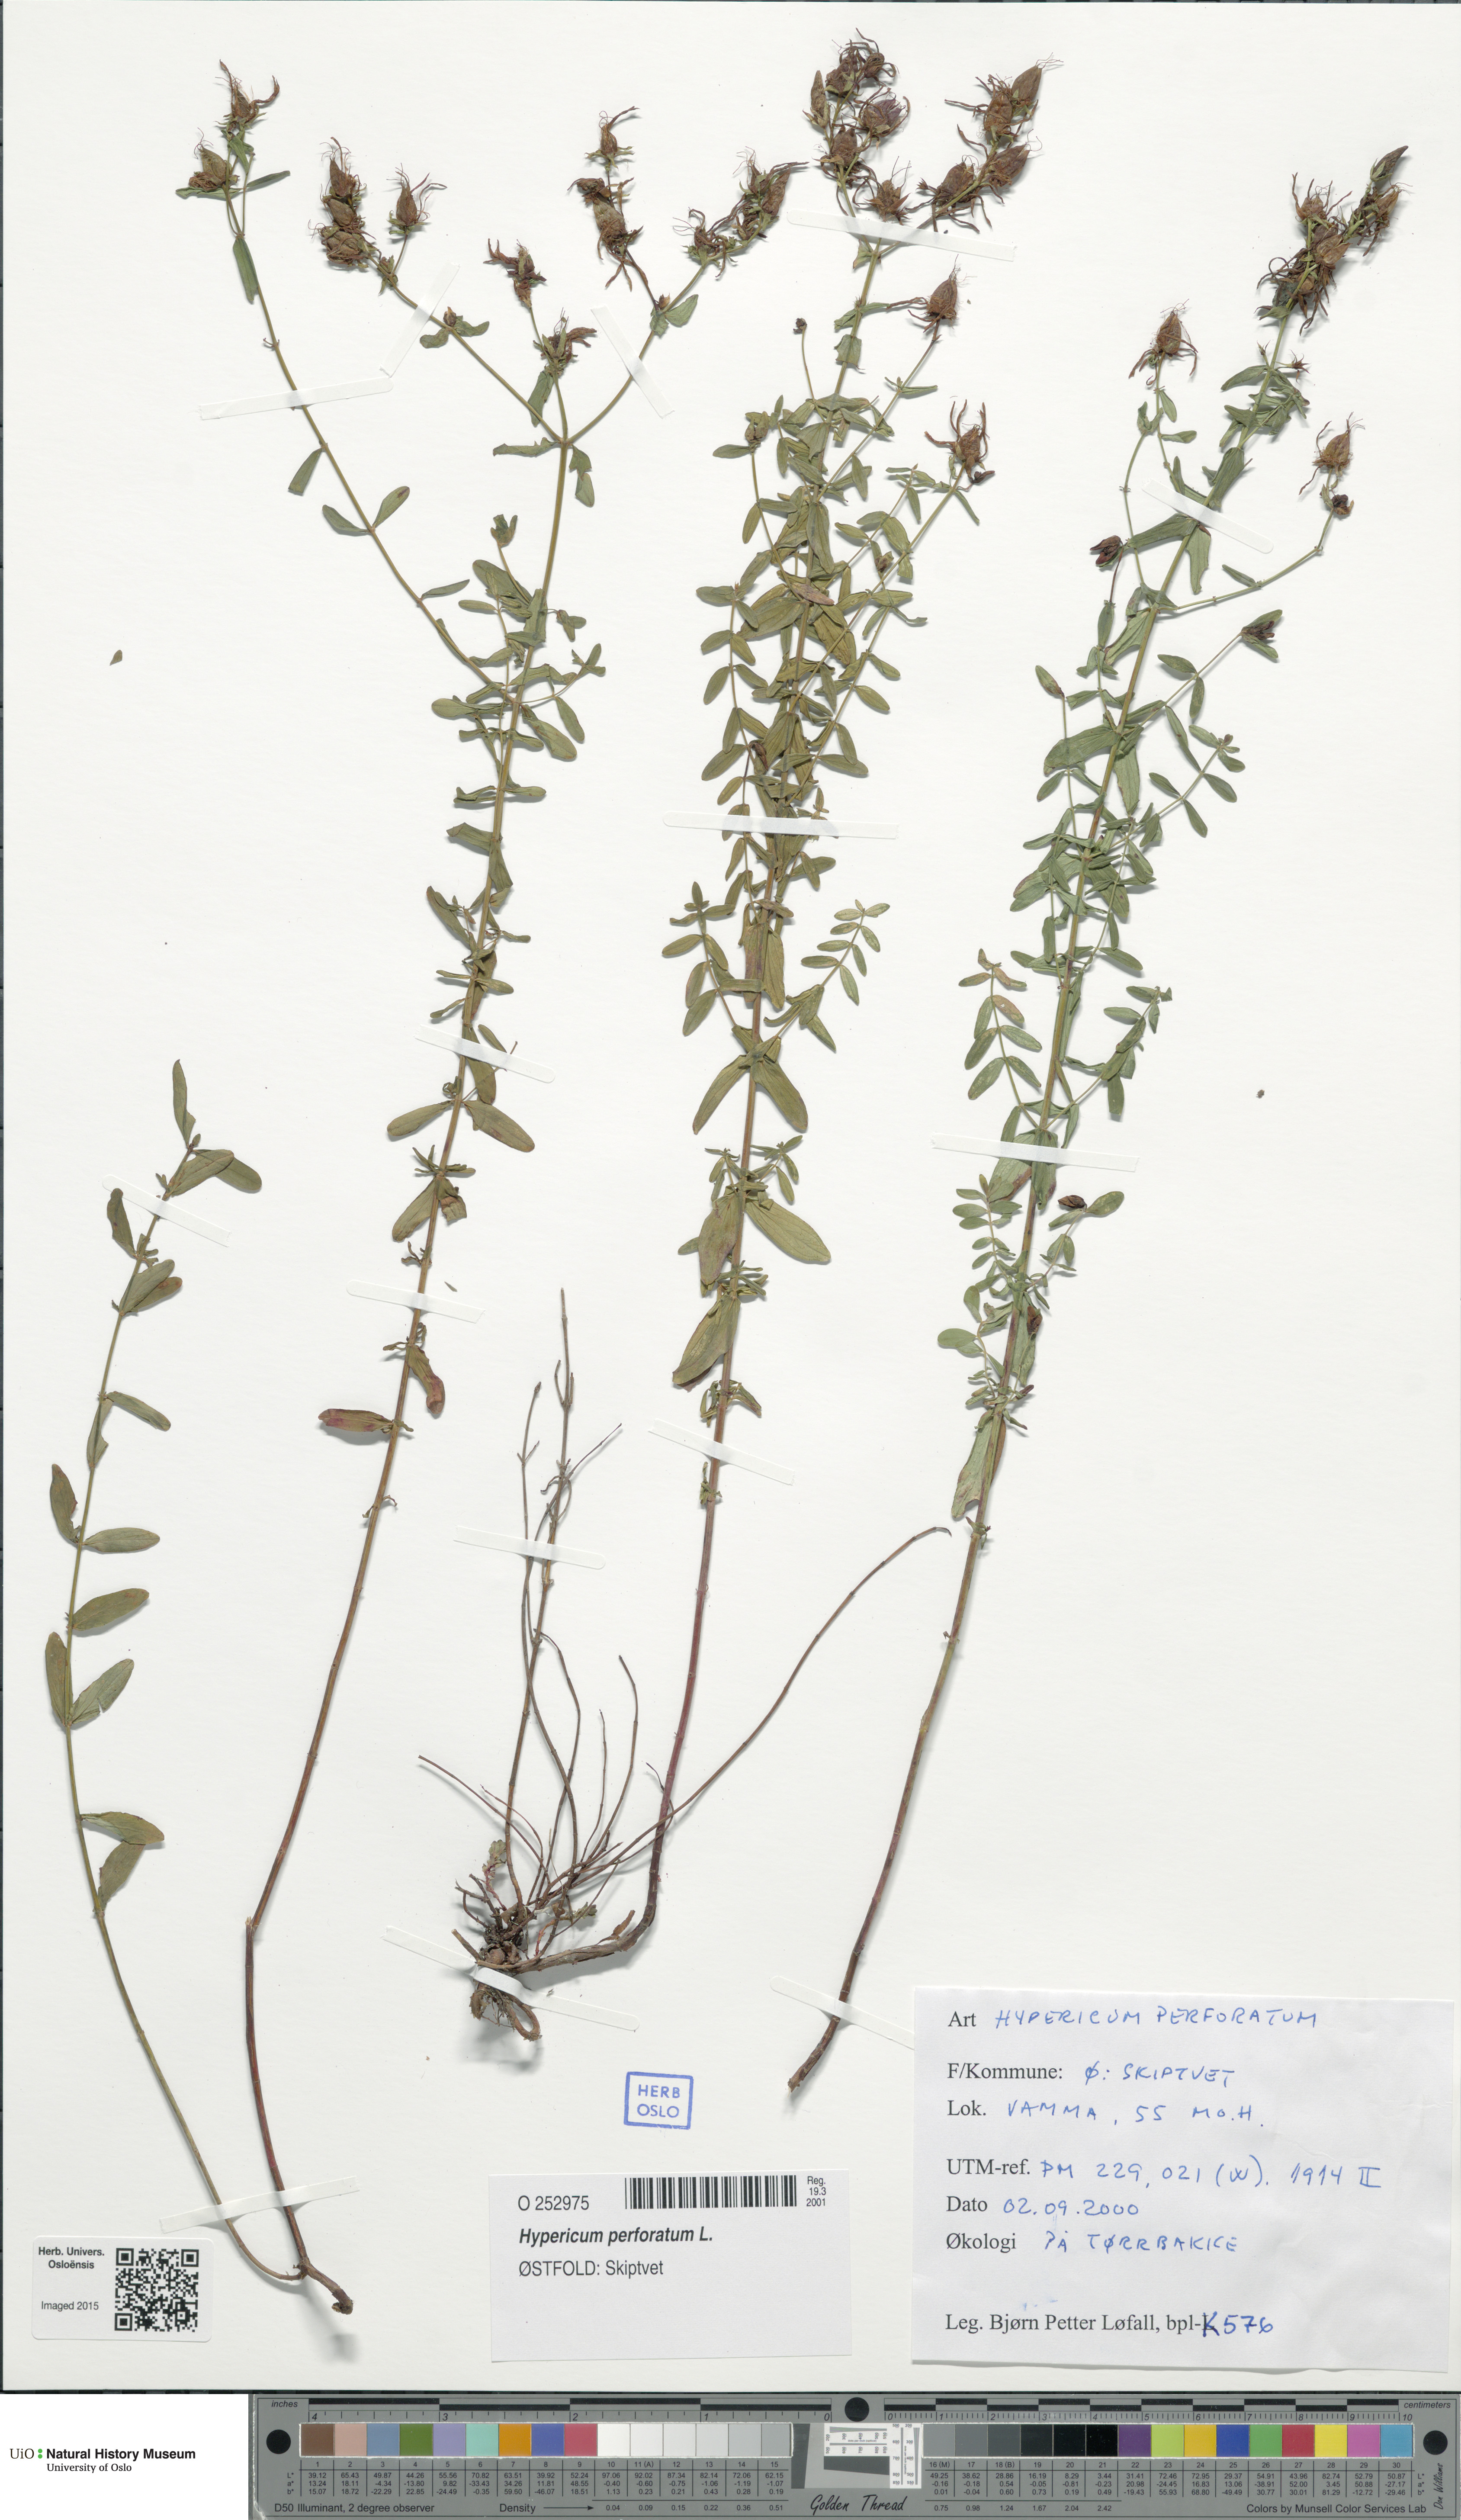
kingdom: Plantae
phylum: Tracheophyta
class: Magnoliopsida
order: Malpighiales
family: Hypericaceae
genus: Hypericum
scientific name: Hypericum perforatum
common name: Common st. johnswort
